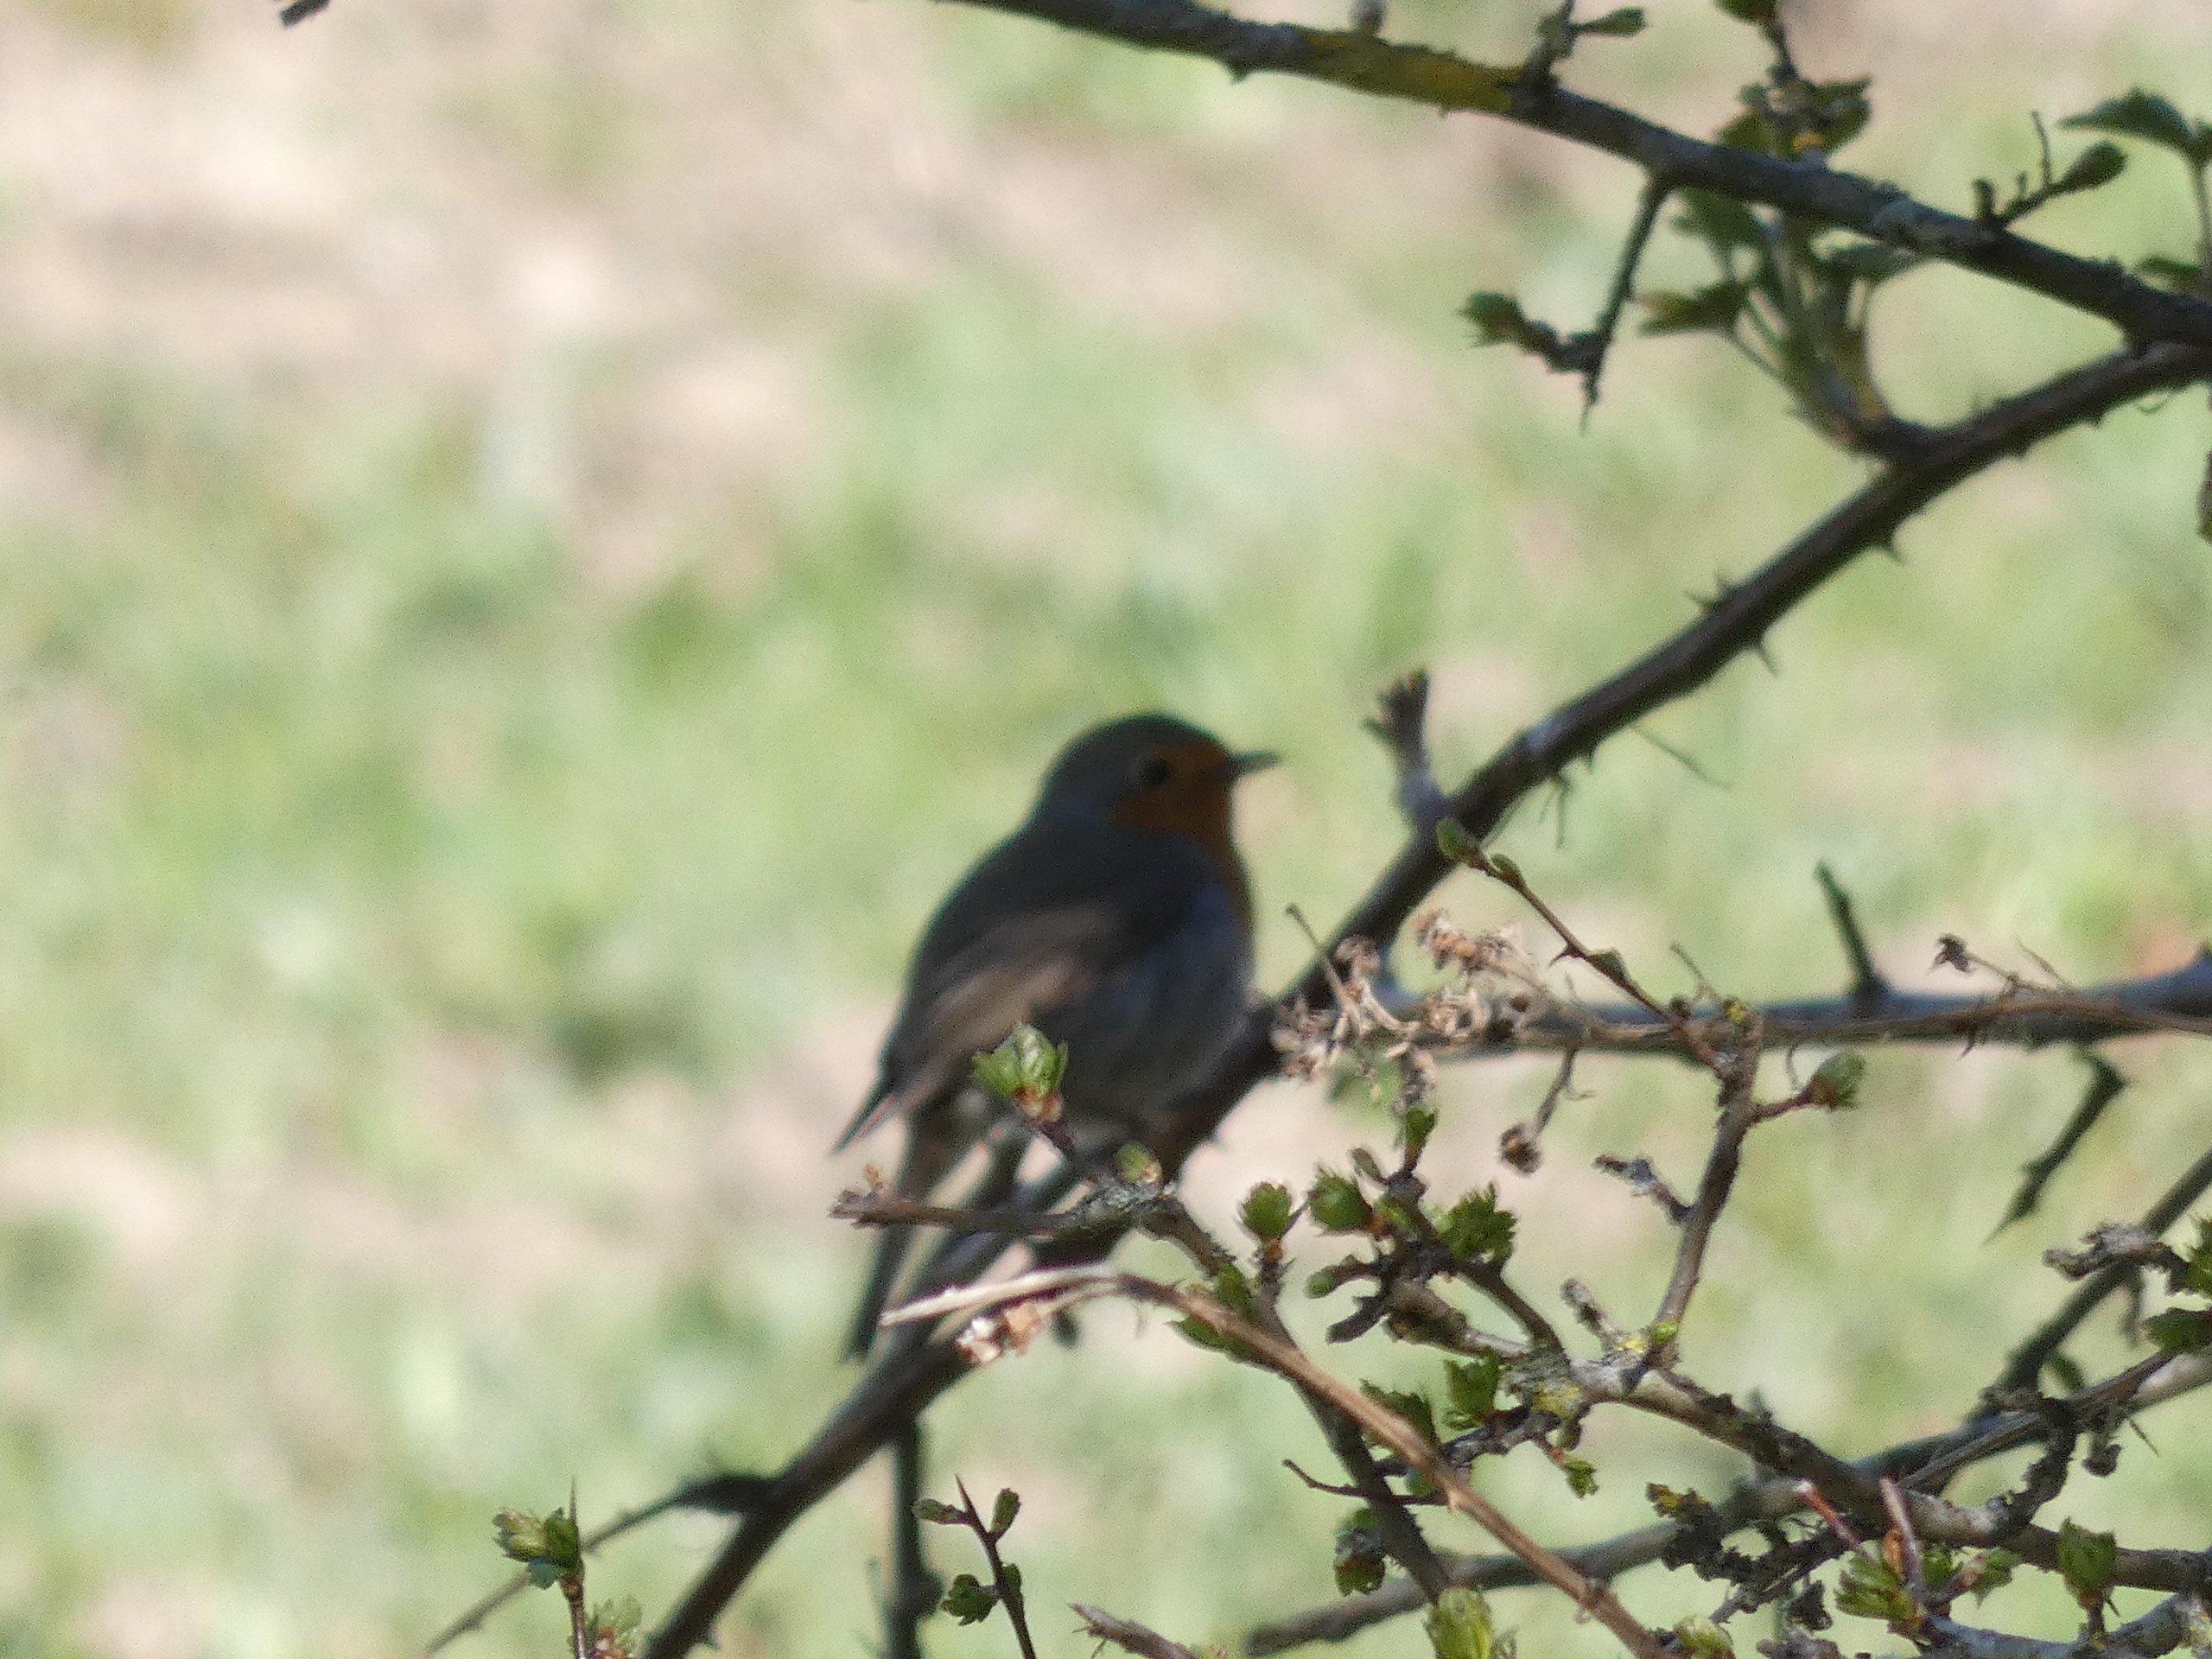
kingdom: Animalia
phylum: Chordata
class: Aves
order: Passeriformes
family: Muscicapidae
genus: Erithacus
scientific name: Erithacus rubecula
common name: Rødhals/rødkælk
